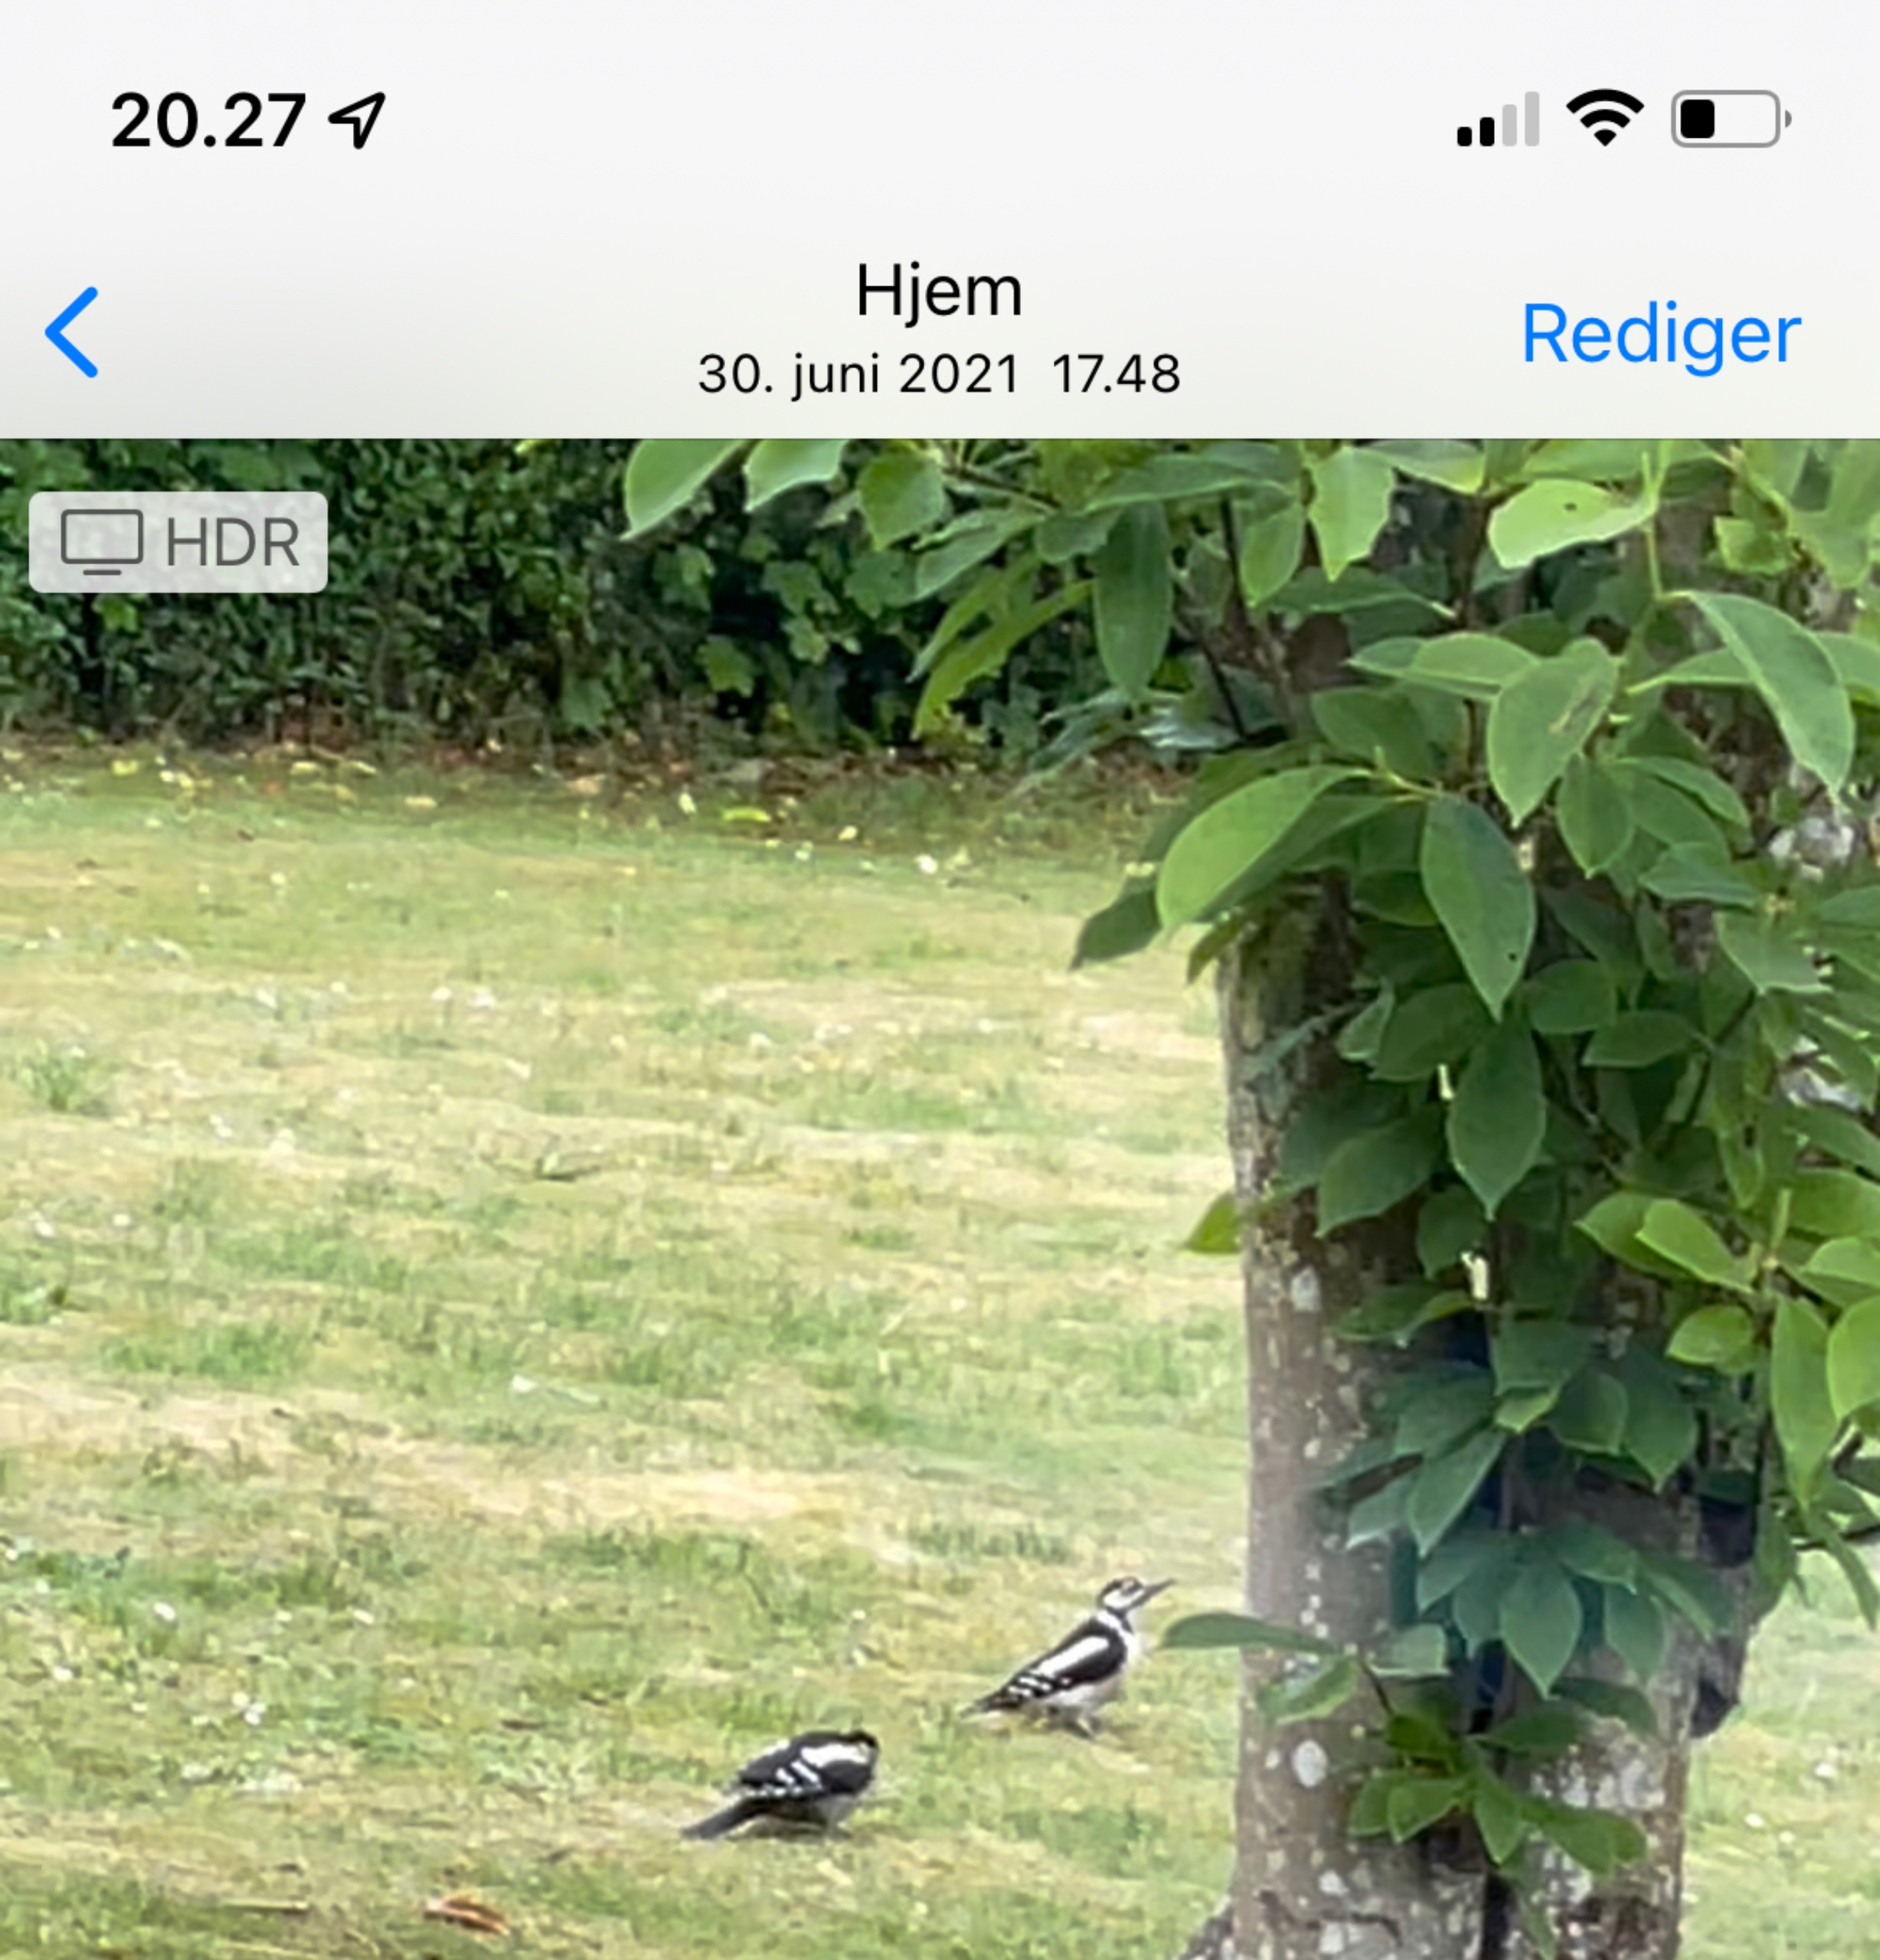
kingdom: Animalia
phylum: Chordata
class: Aves
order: Piciformes
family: Picidae
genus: Dendrocopos
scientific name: Dendrocopos major
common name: Stor flagspætte
